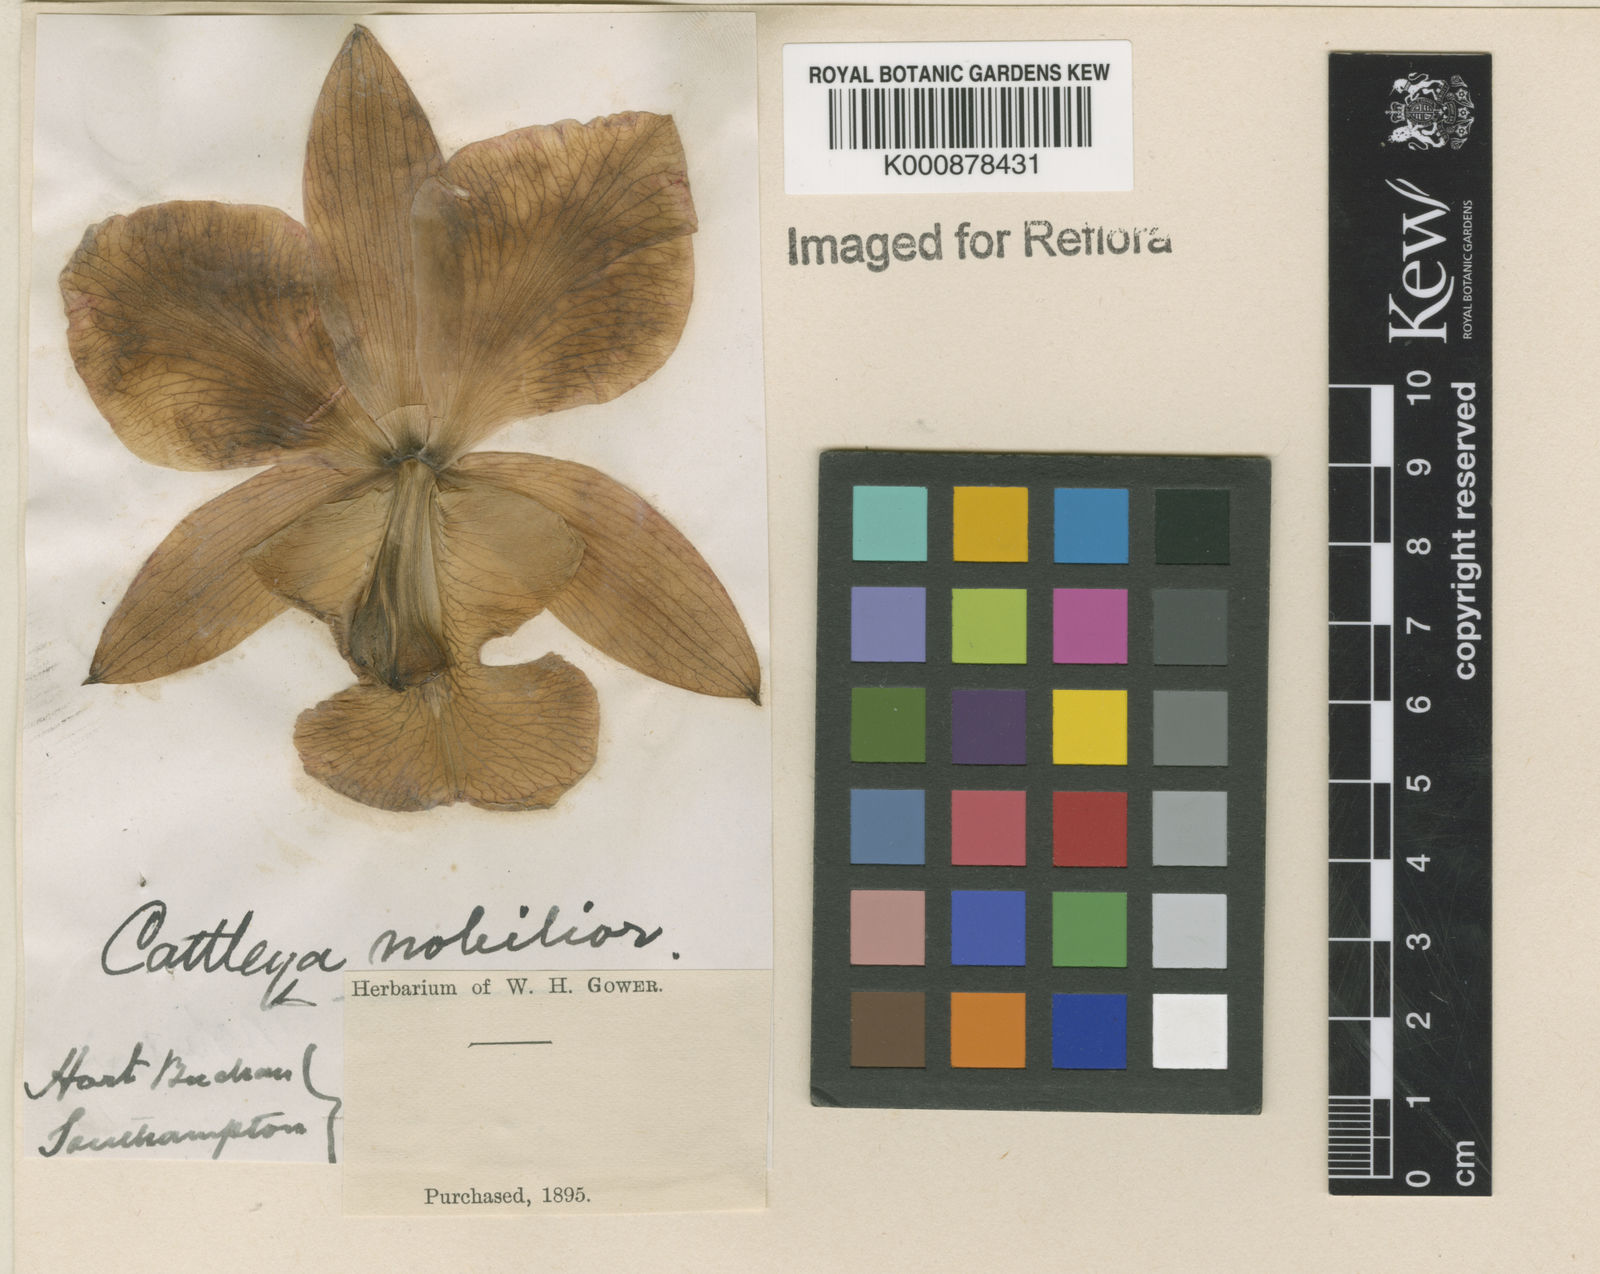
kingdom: Plantae
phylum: Tracheophyta
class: Liliopsida
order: Asparagales
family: Orchidaceae
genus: Cattleya
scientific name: Cattleya nobilior
